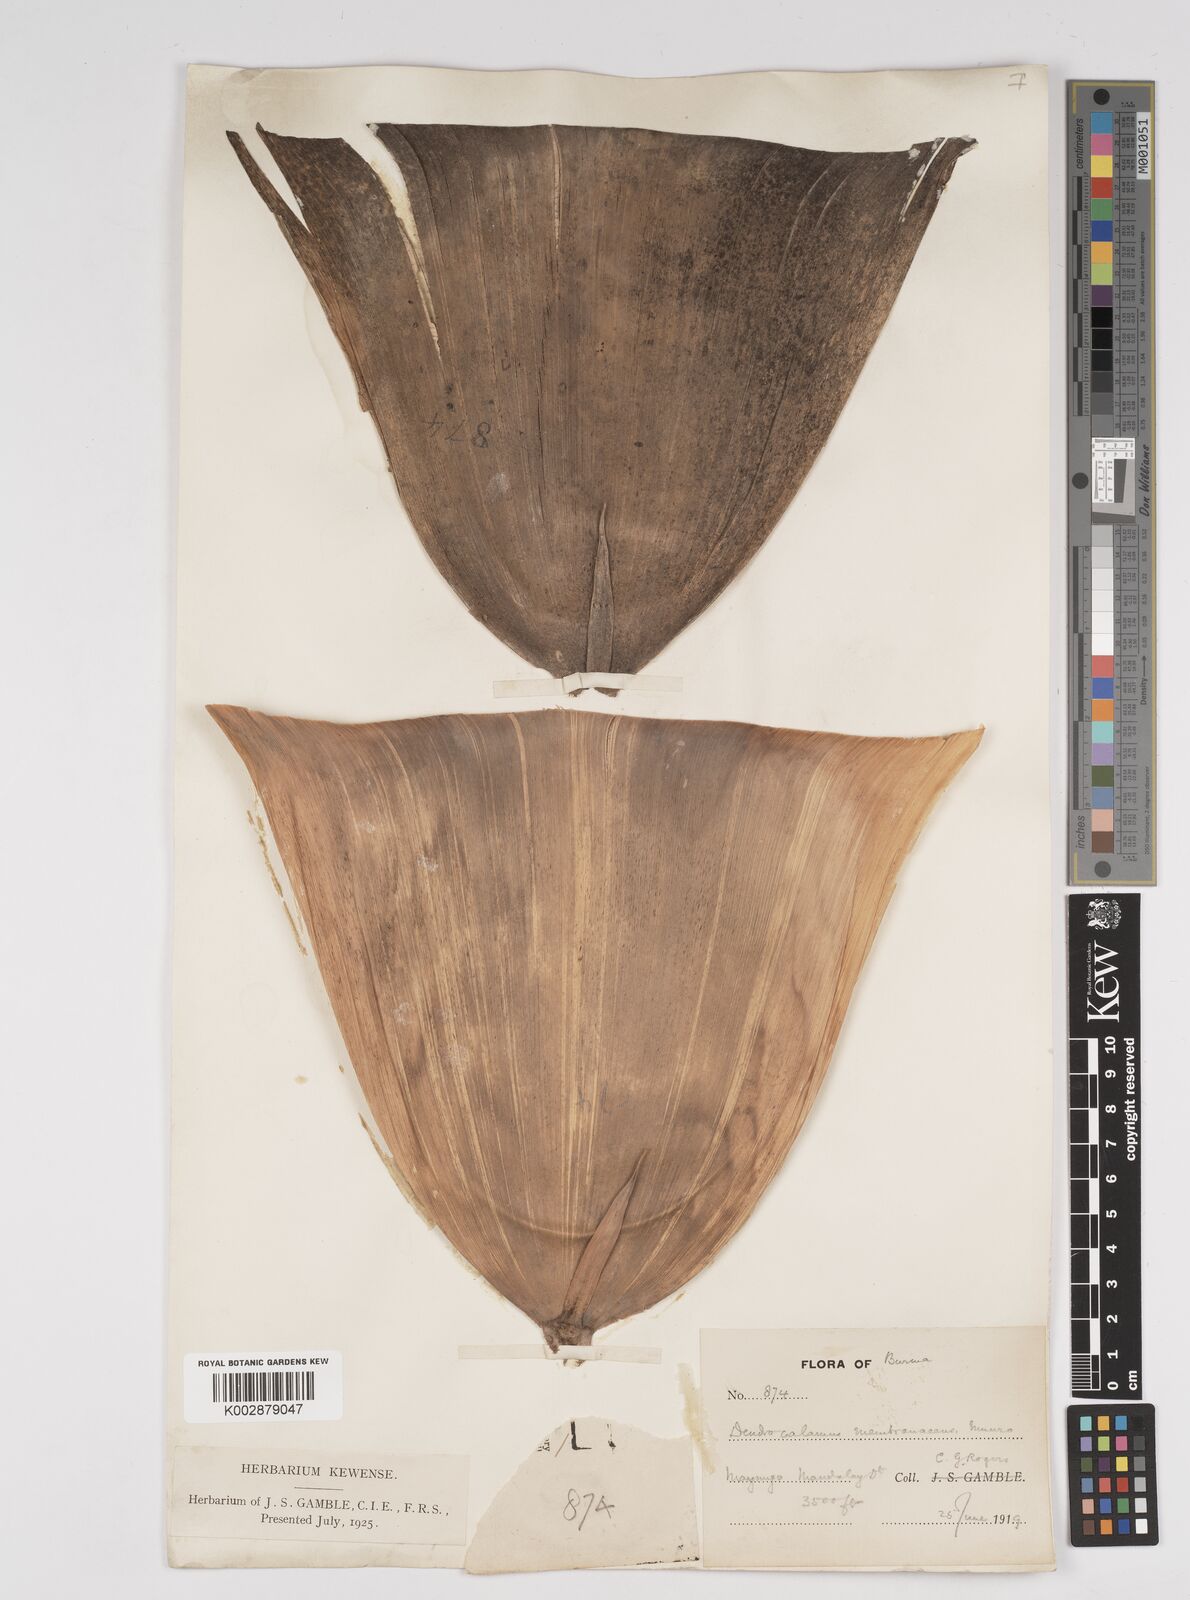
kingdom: Plantae
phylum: Tracheophyta
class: Liliopsida
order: Poales
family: Poaceae
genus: Dendrocalamus
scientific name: Dendrocalamus membranaceus
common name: White bamboo
